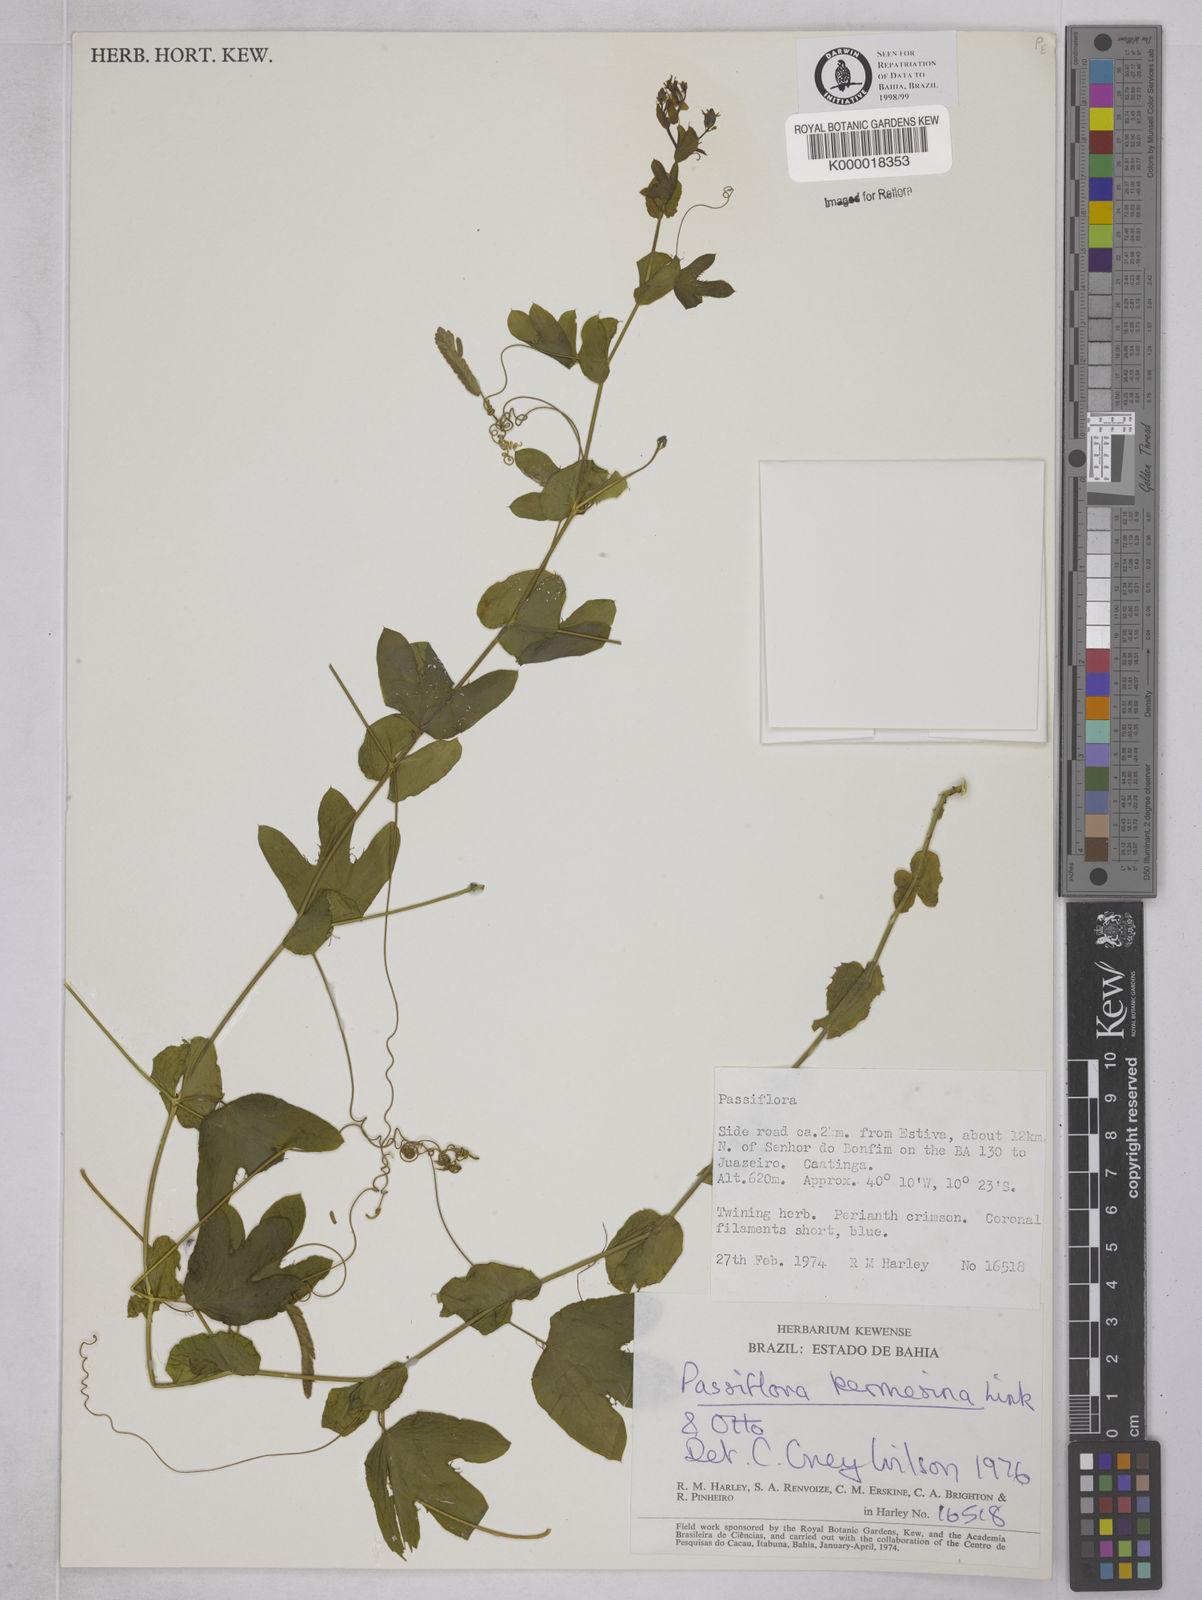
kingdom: Plantae
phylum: Tracheophyta
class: Magnoliopsida
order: Malpighiales
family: Passifloraceae
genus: Passiflora
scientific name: Passiflora kermesina
